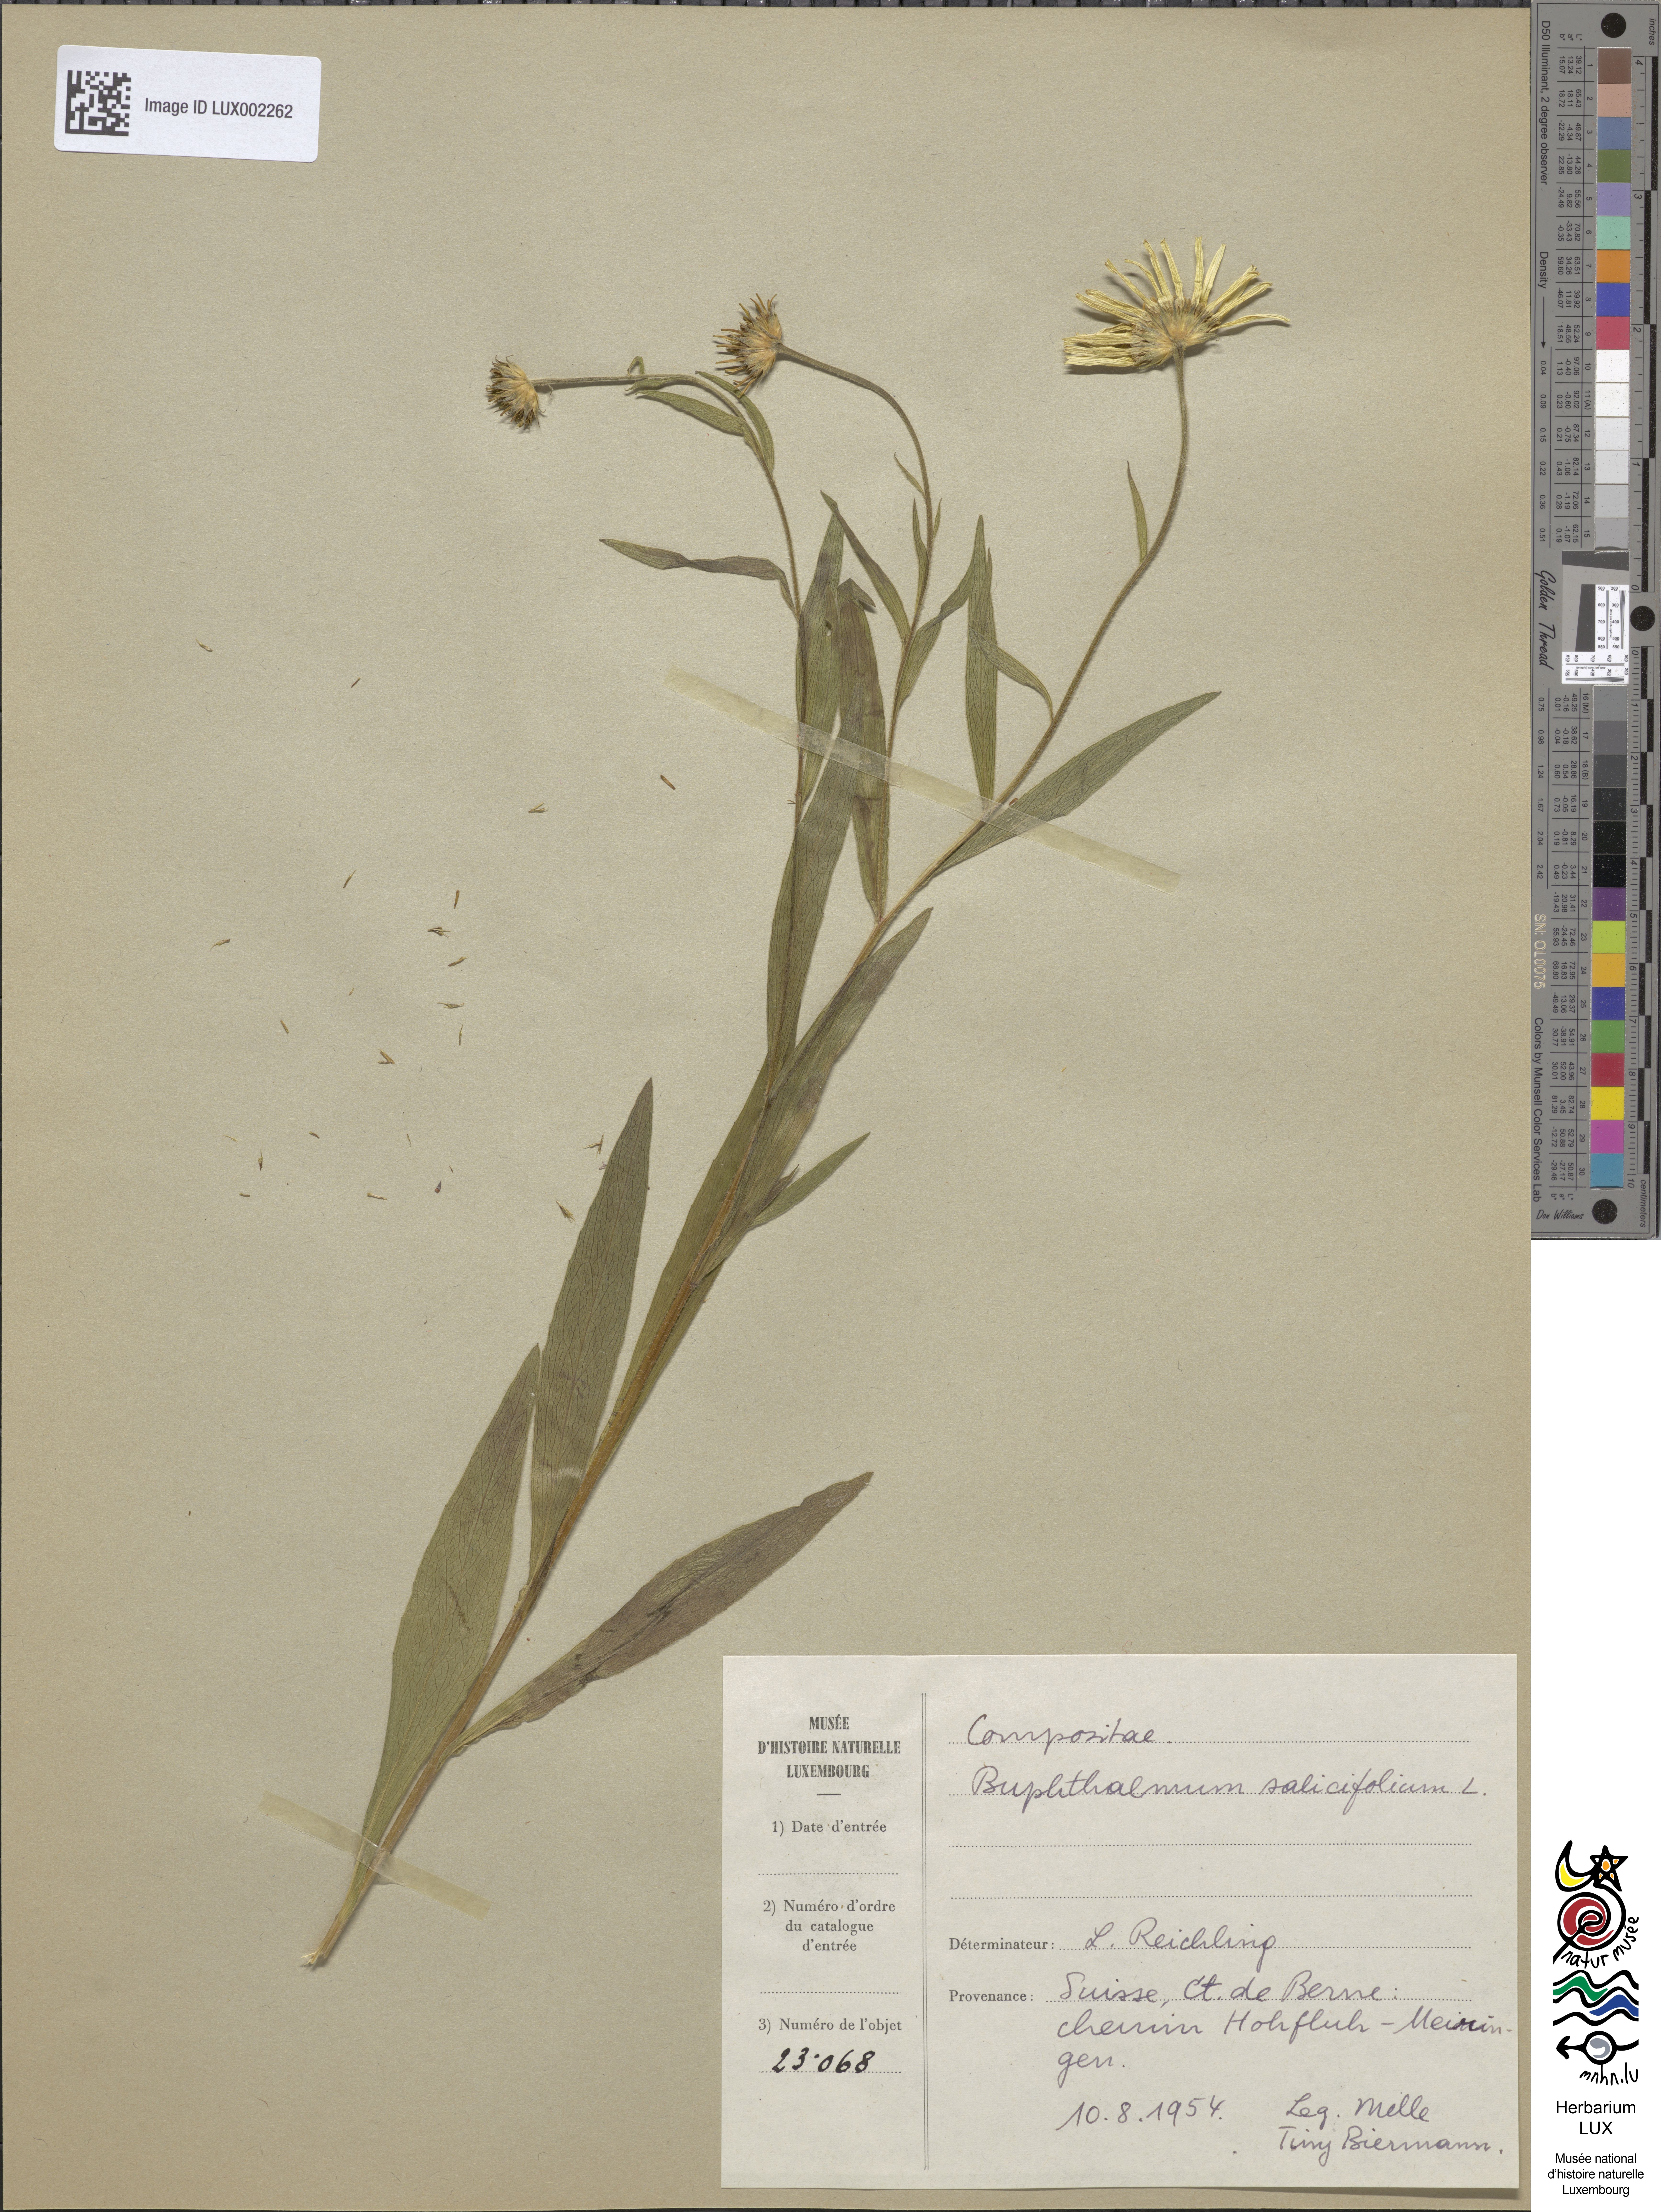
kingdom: Plantae
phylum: Tracheophyta
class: Magnoliopsida
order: Asterales
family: Asteraceae
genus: Buphthalmum
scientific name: Buphthalmum salicifolium
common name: Willow-leaved yellow-oxeye
